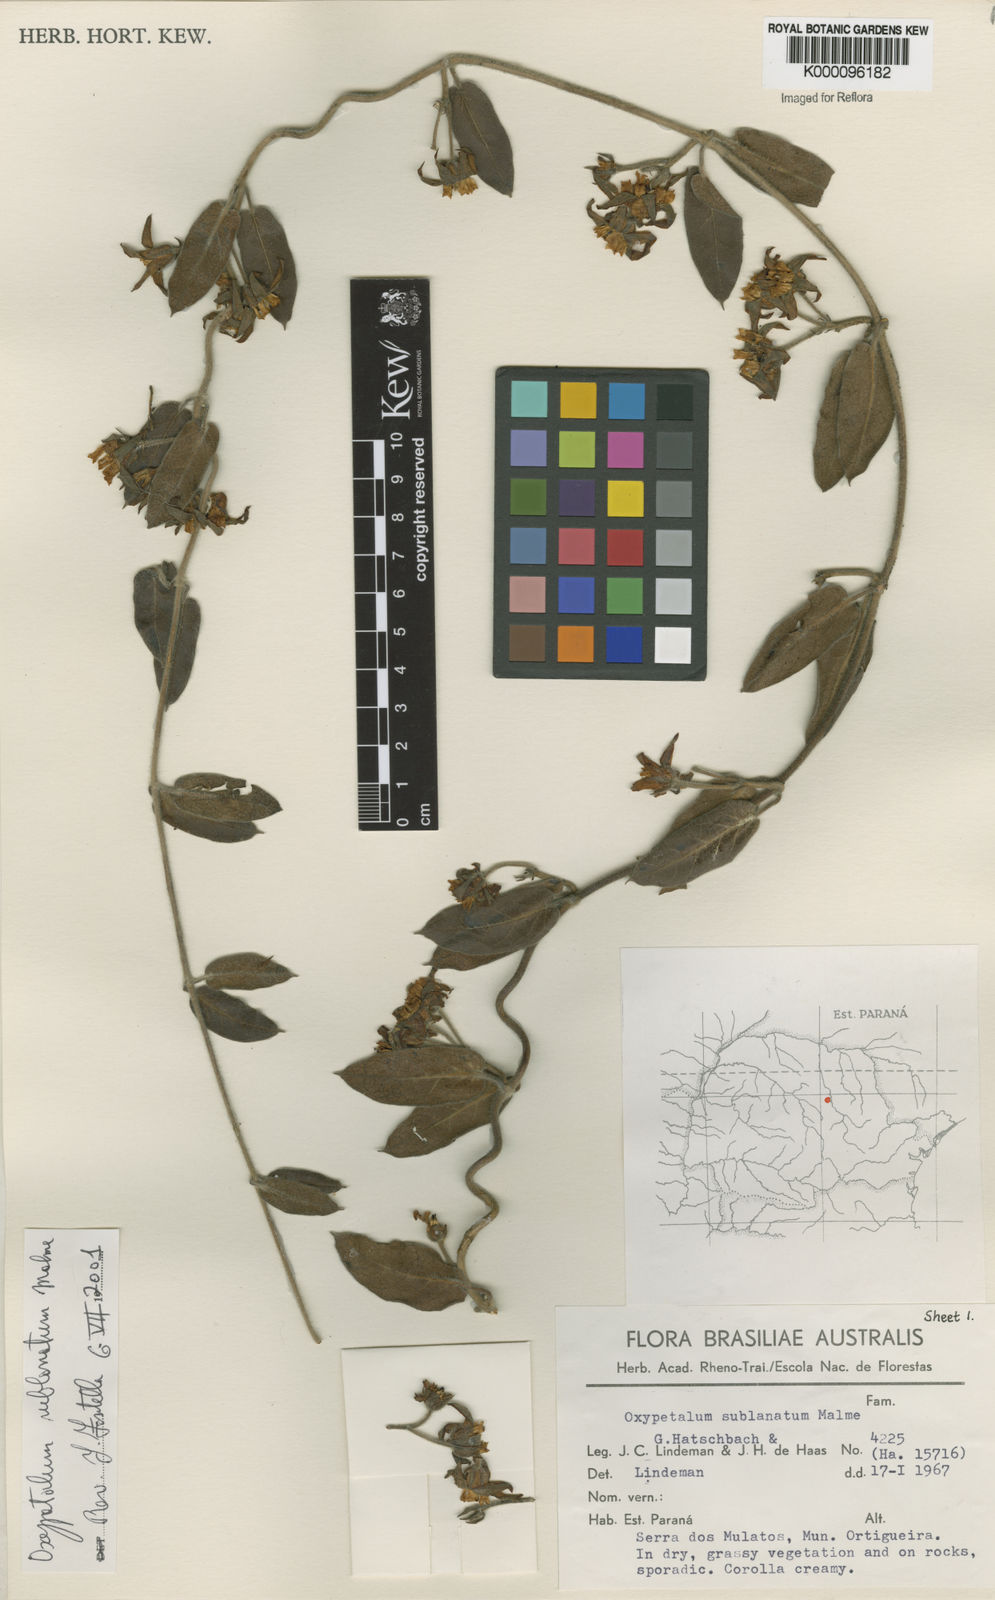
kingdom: Plantae
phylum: Tracheophyta
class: Magnoliopsida
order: Gentianales
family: Apocynaceae
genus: Oxypetalum
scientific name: Oxypetalum sublanatum
